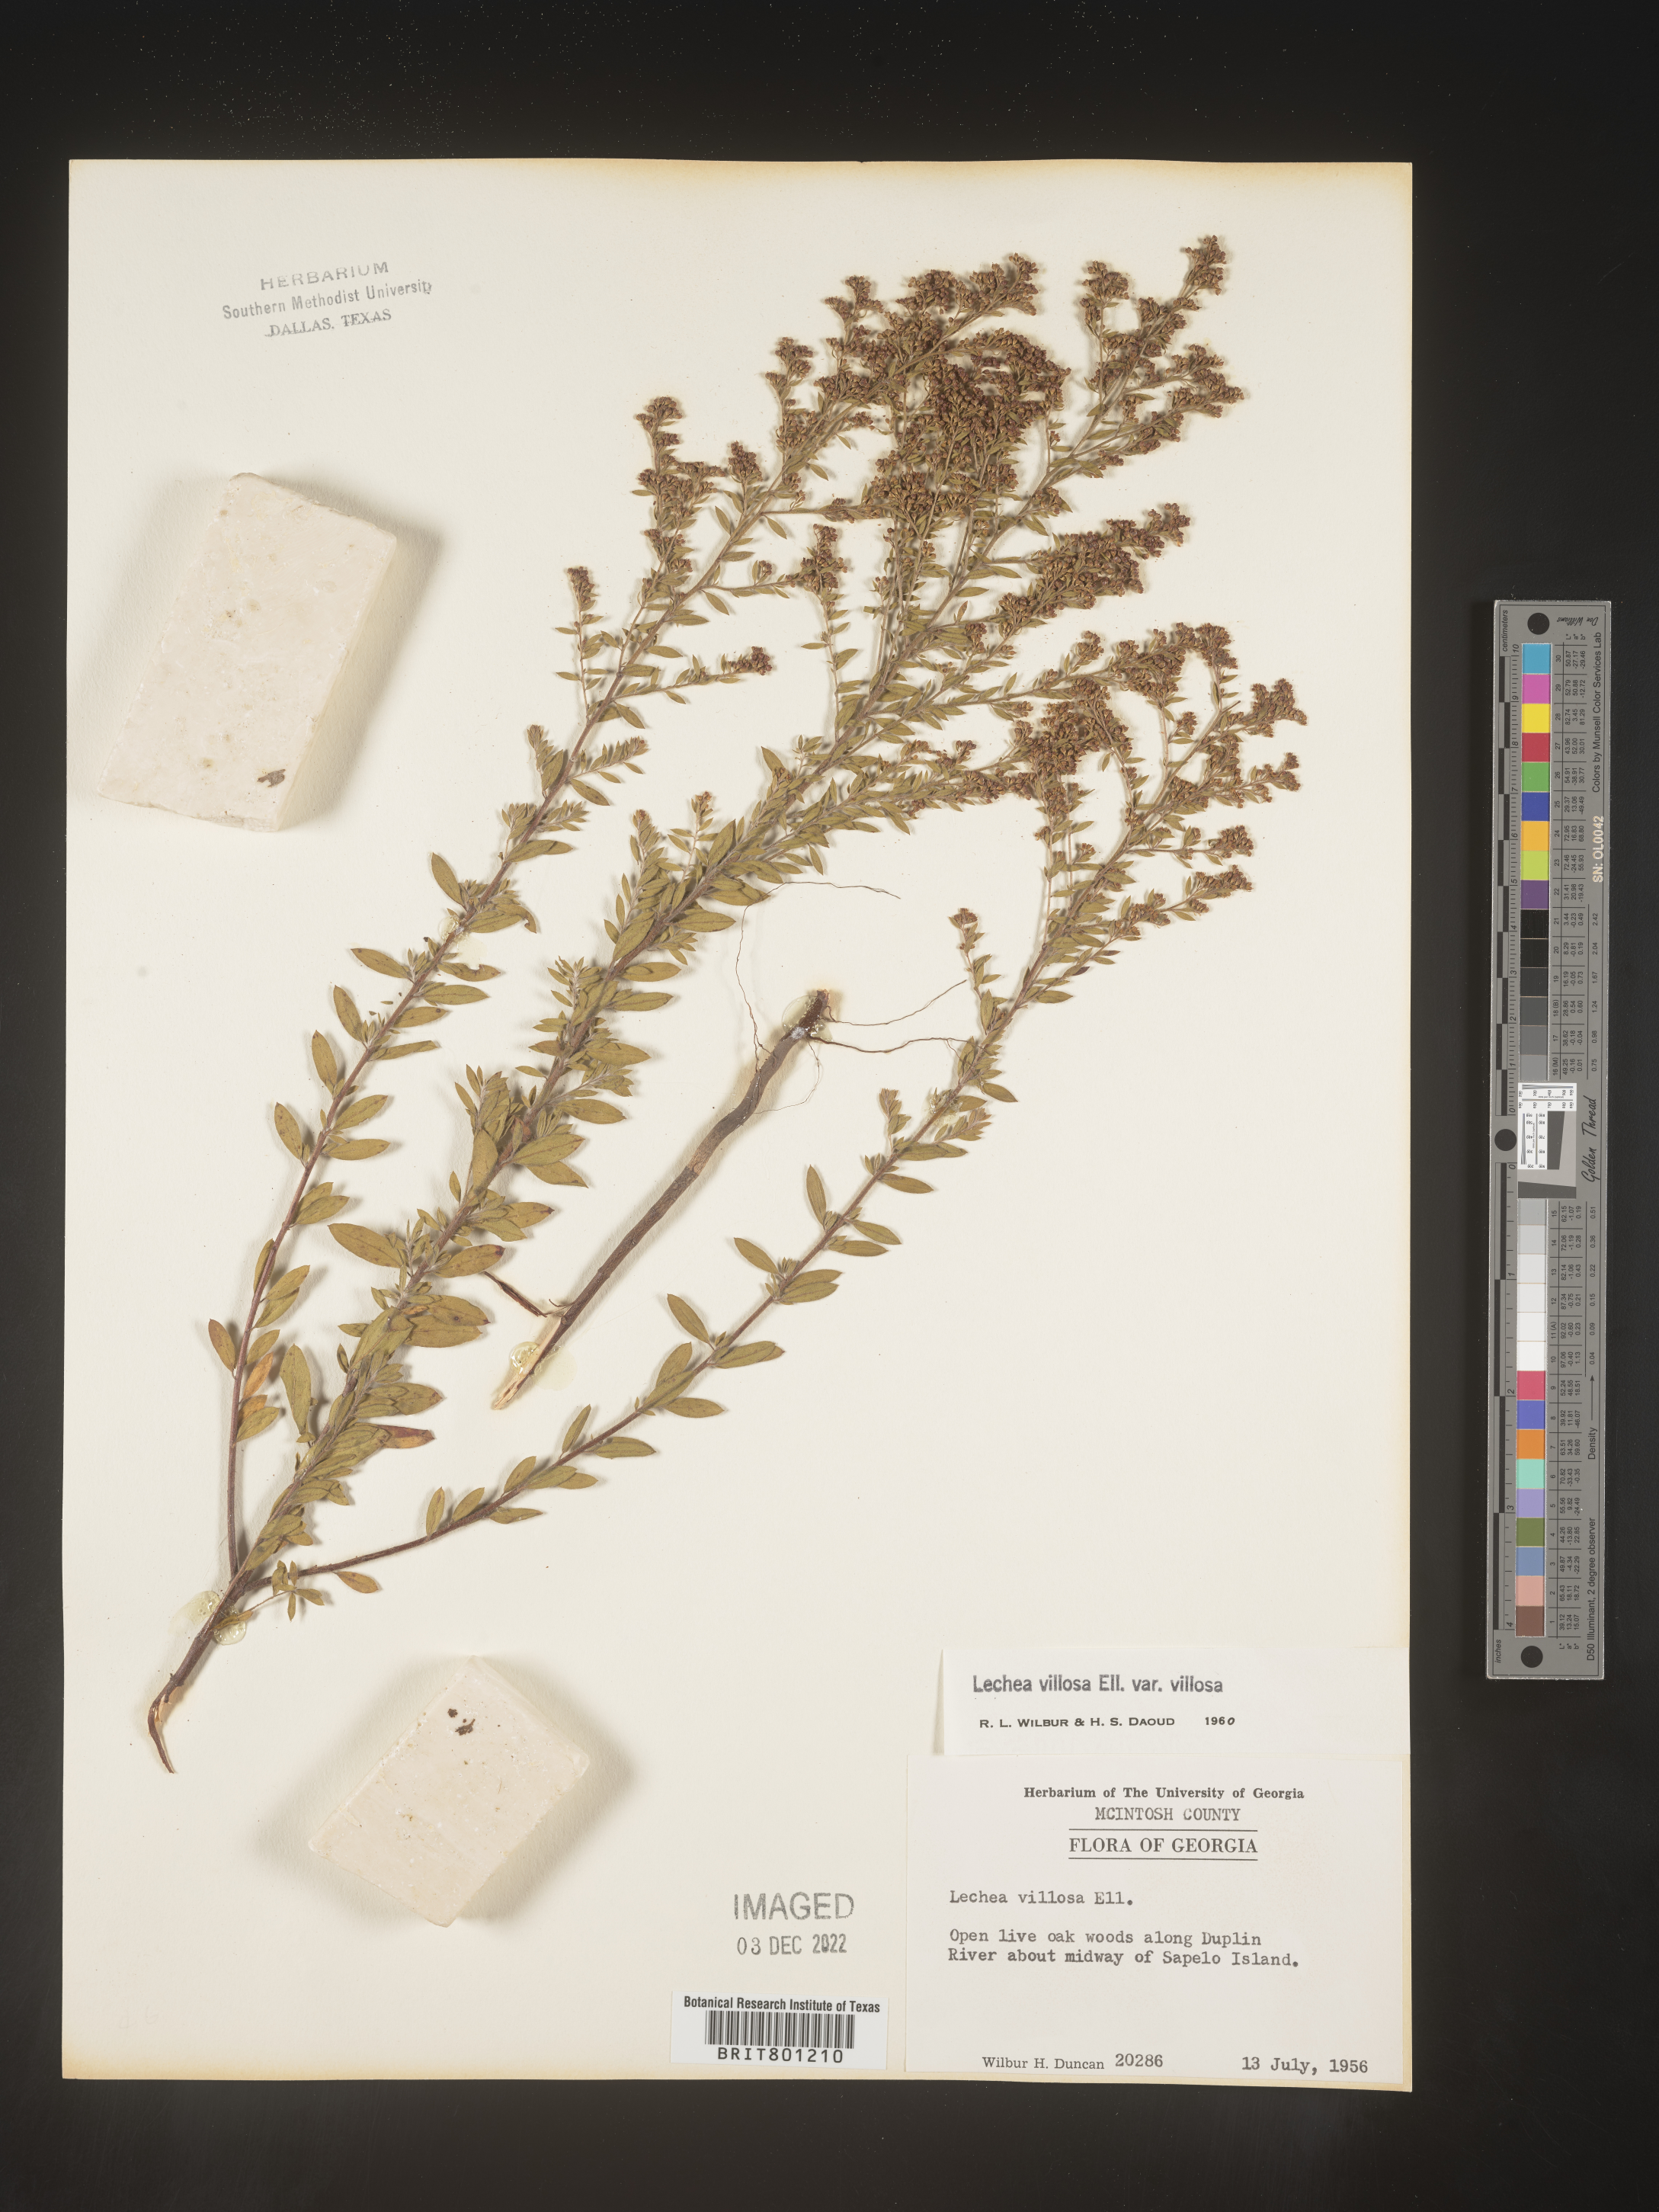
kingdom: Plantae
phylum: Tracheophyta
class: Magnoliopsida
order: Malvales
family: Cistaceae
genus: Lechea
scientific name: Lechea mucronata
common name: Hairy pinweed
